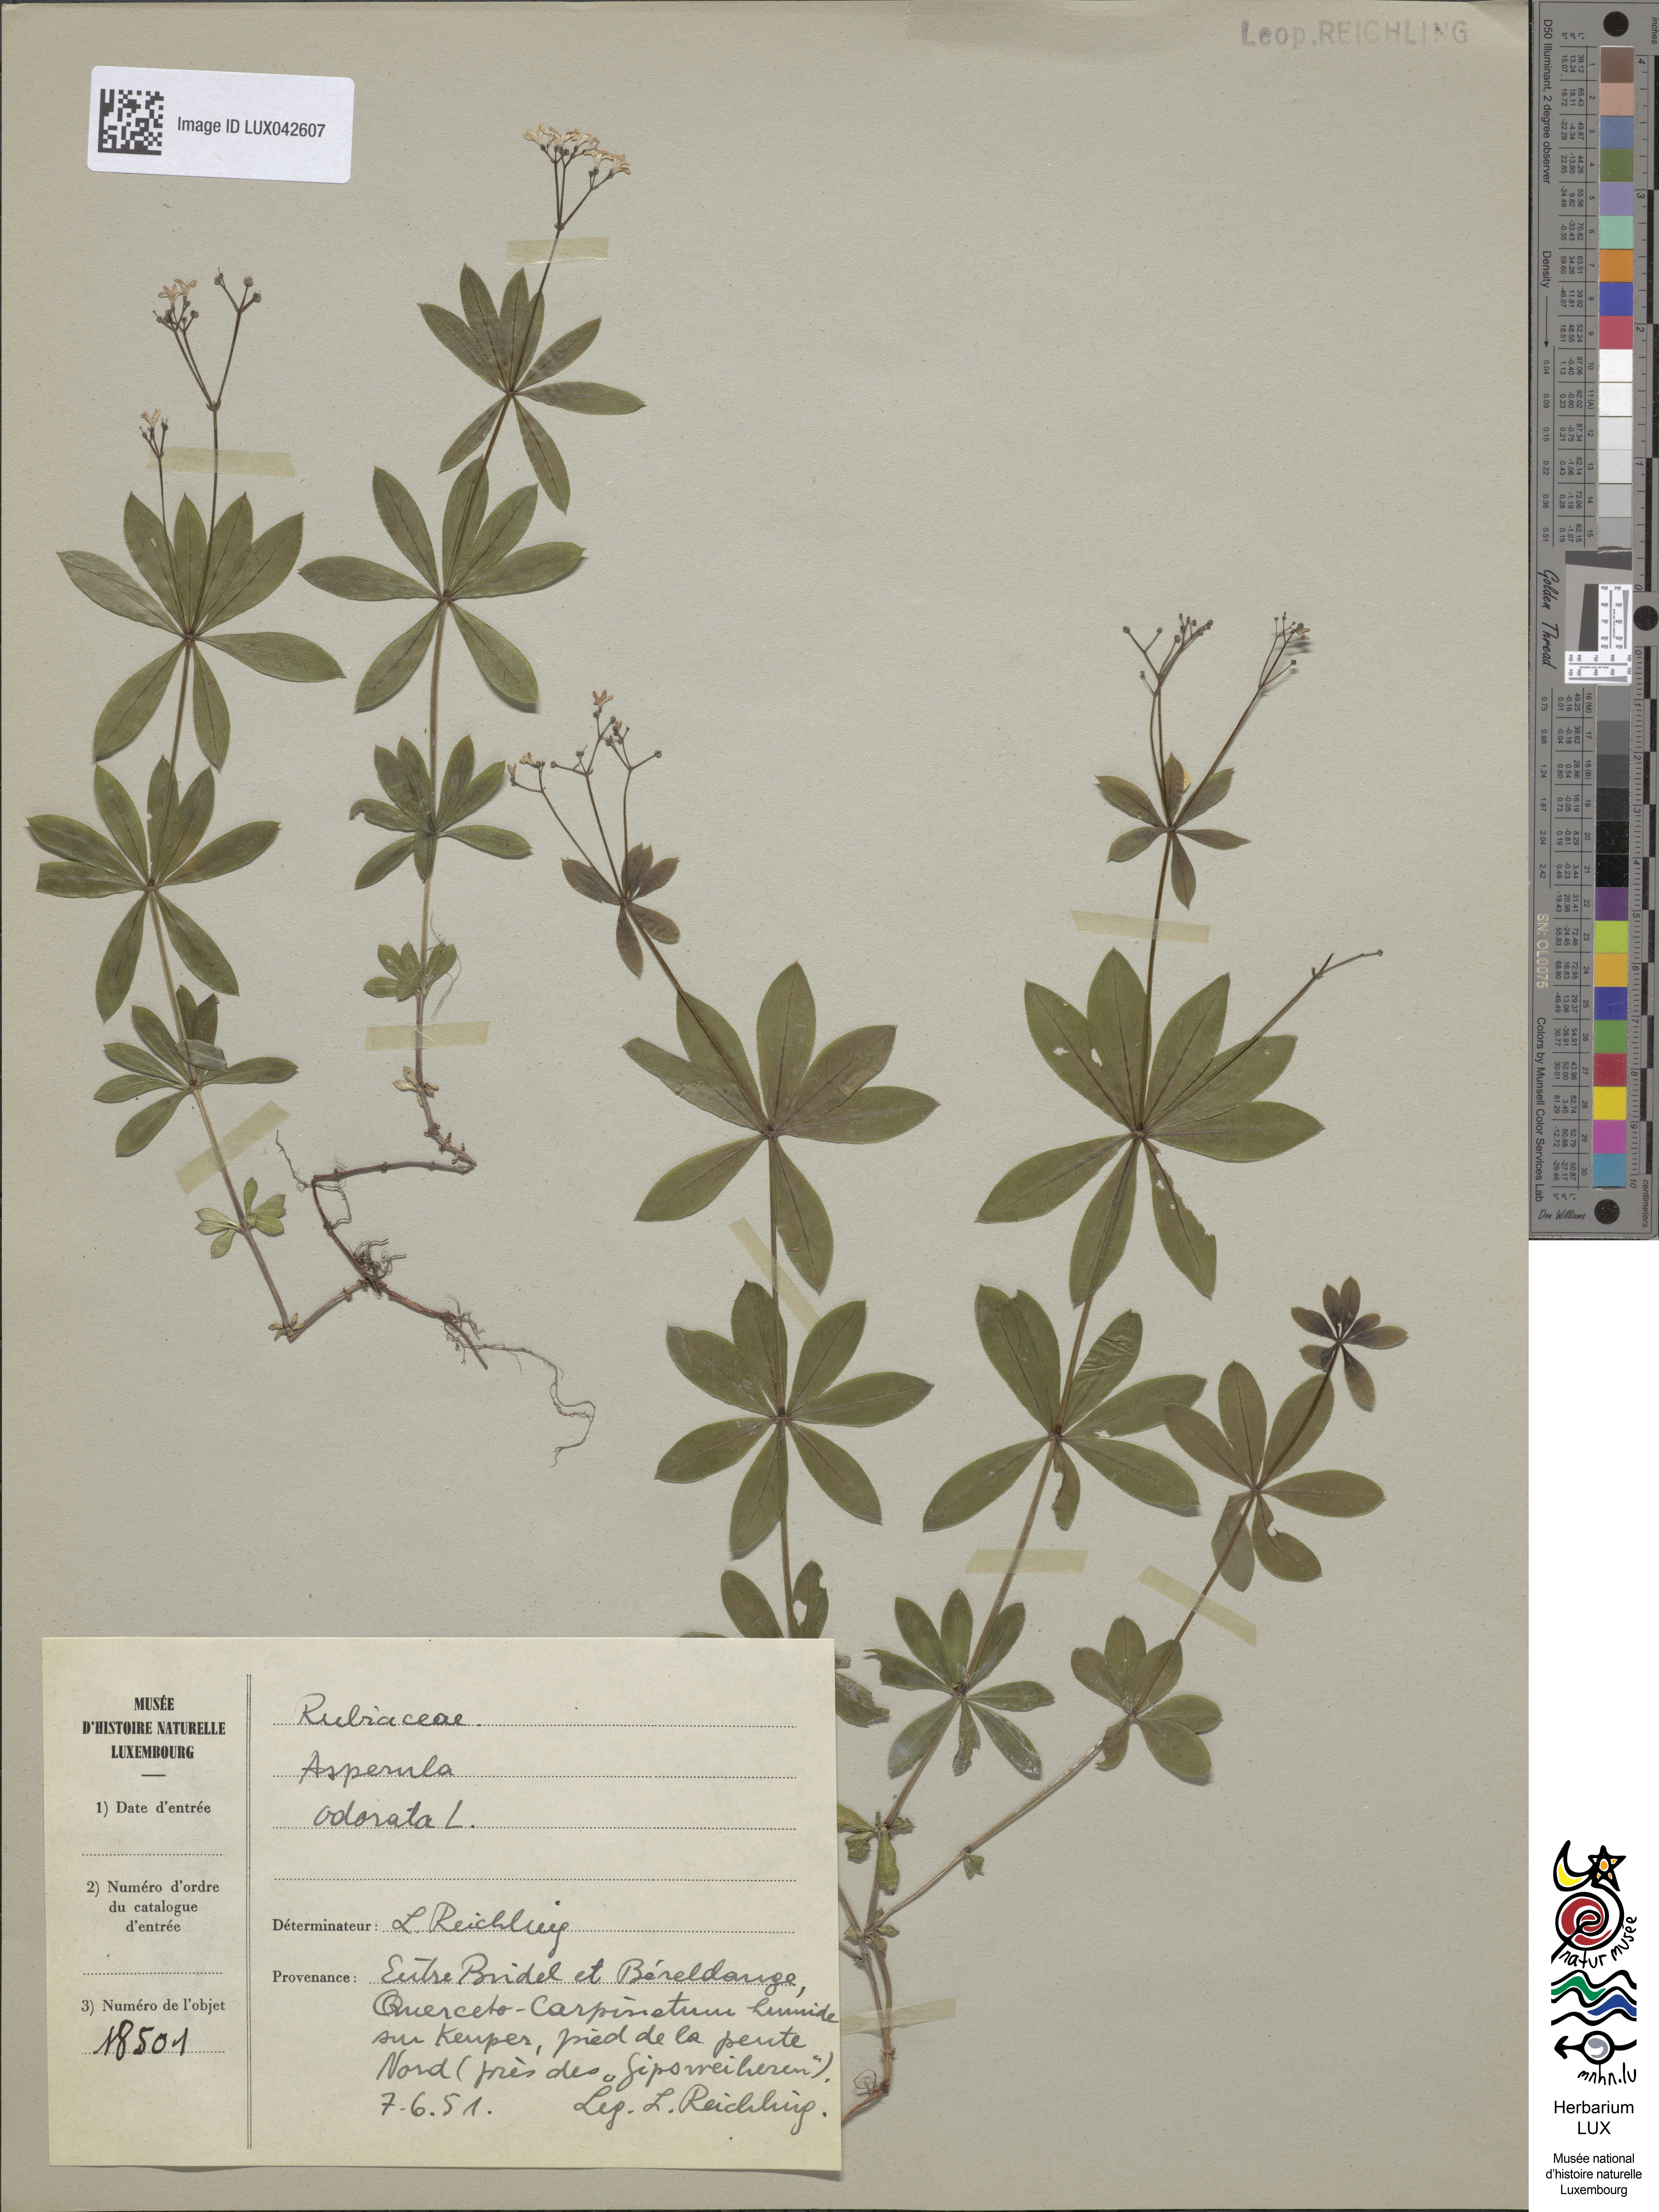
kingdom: Plantae
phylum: Tracheophyta
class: Magnoliopsida
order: Gentianales
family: Rubiaceae
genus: Galium
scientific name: Galium odoratum
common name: Sweet woodruff
